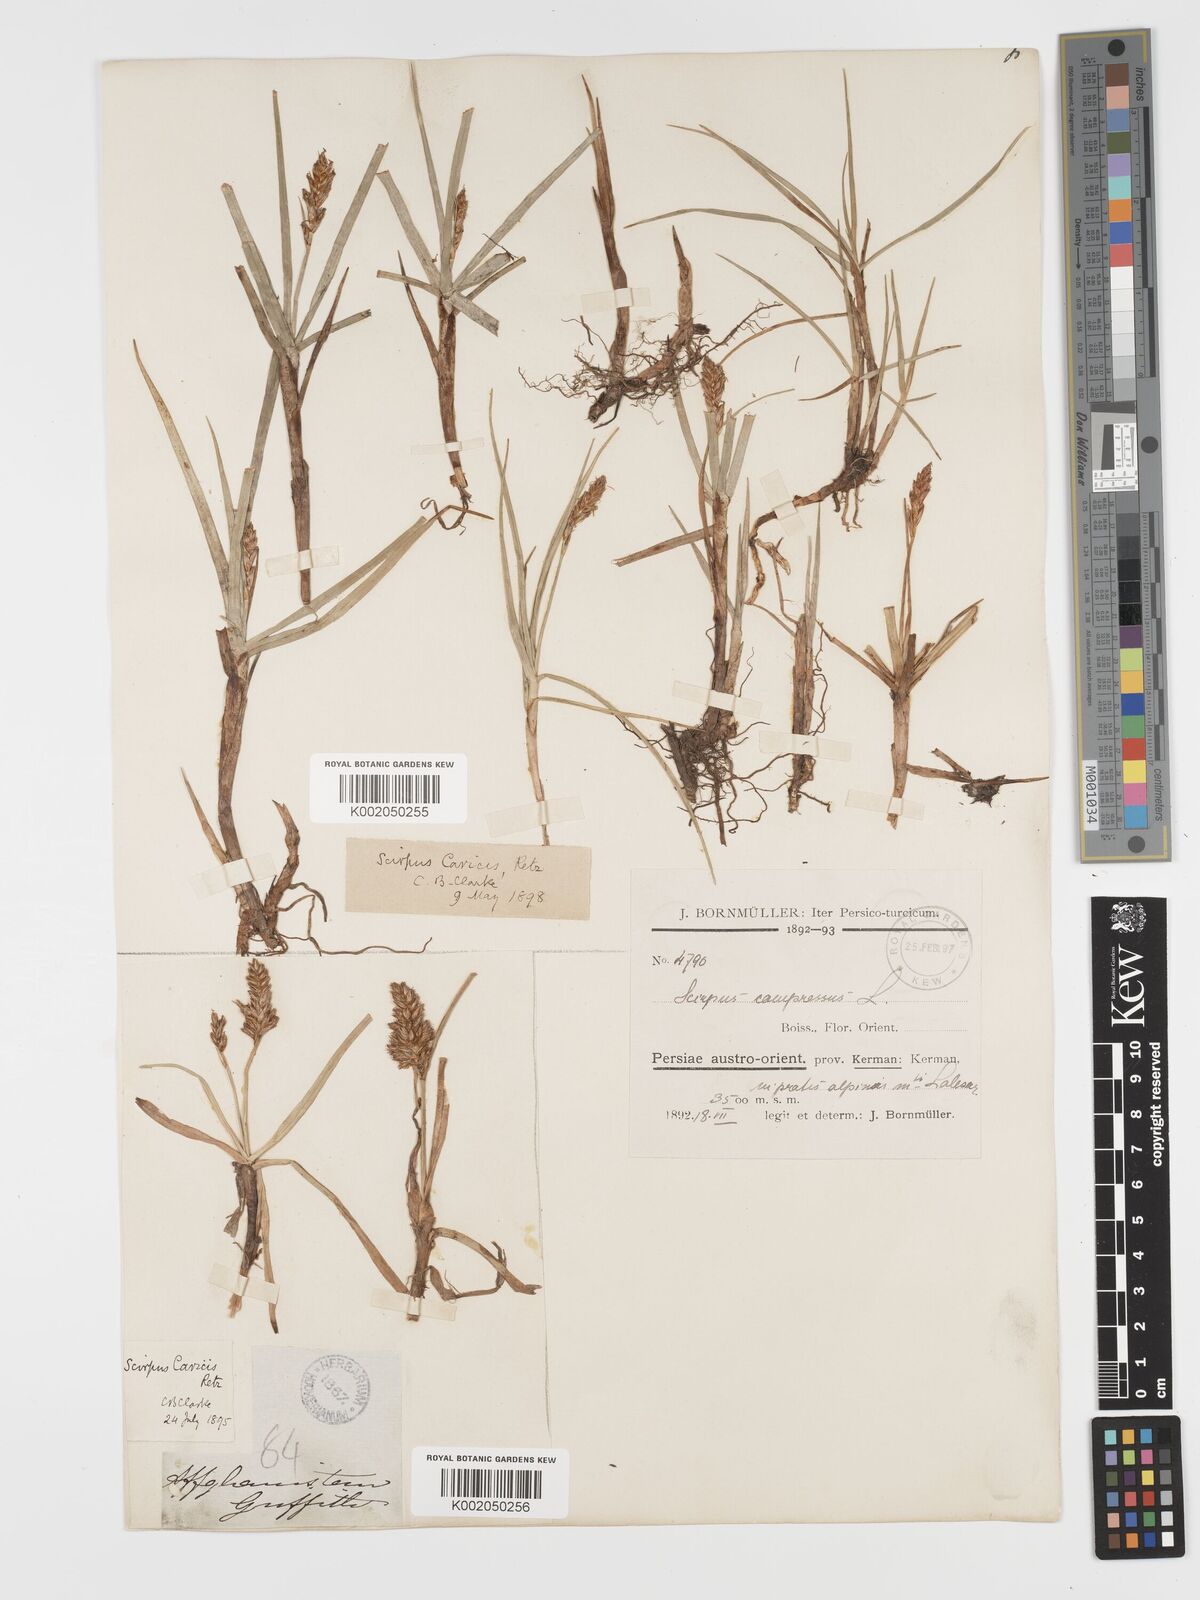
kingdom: Plantae
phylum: Tracheophyta
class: Liliopsida
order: Poales
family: Cyperaceae
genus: Blysmus
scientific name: Blysmus compressus
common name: Flat-sedge
